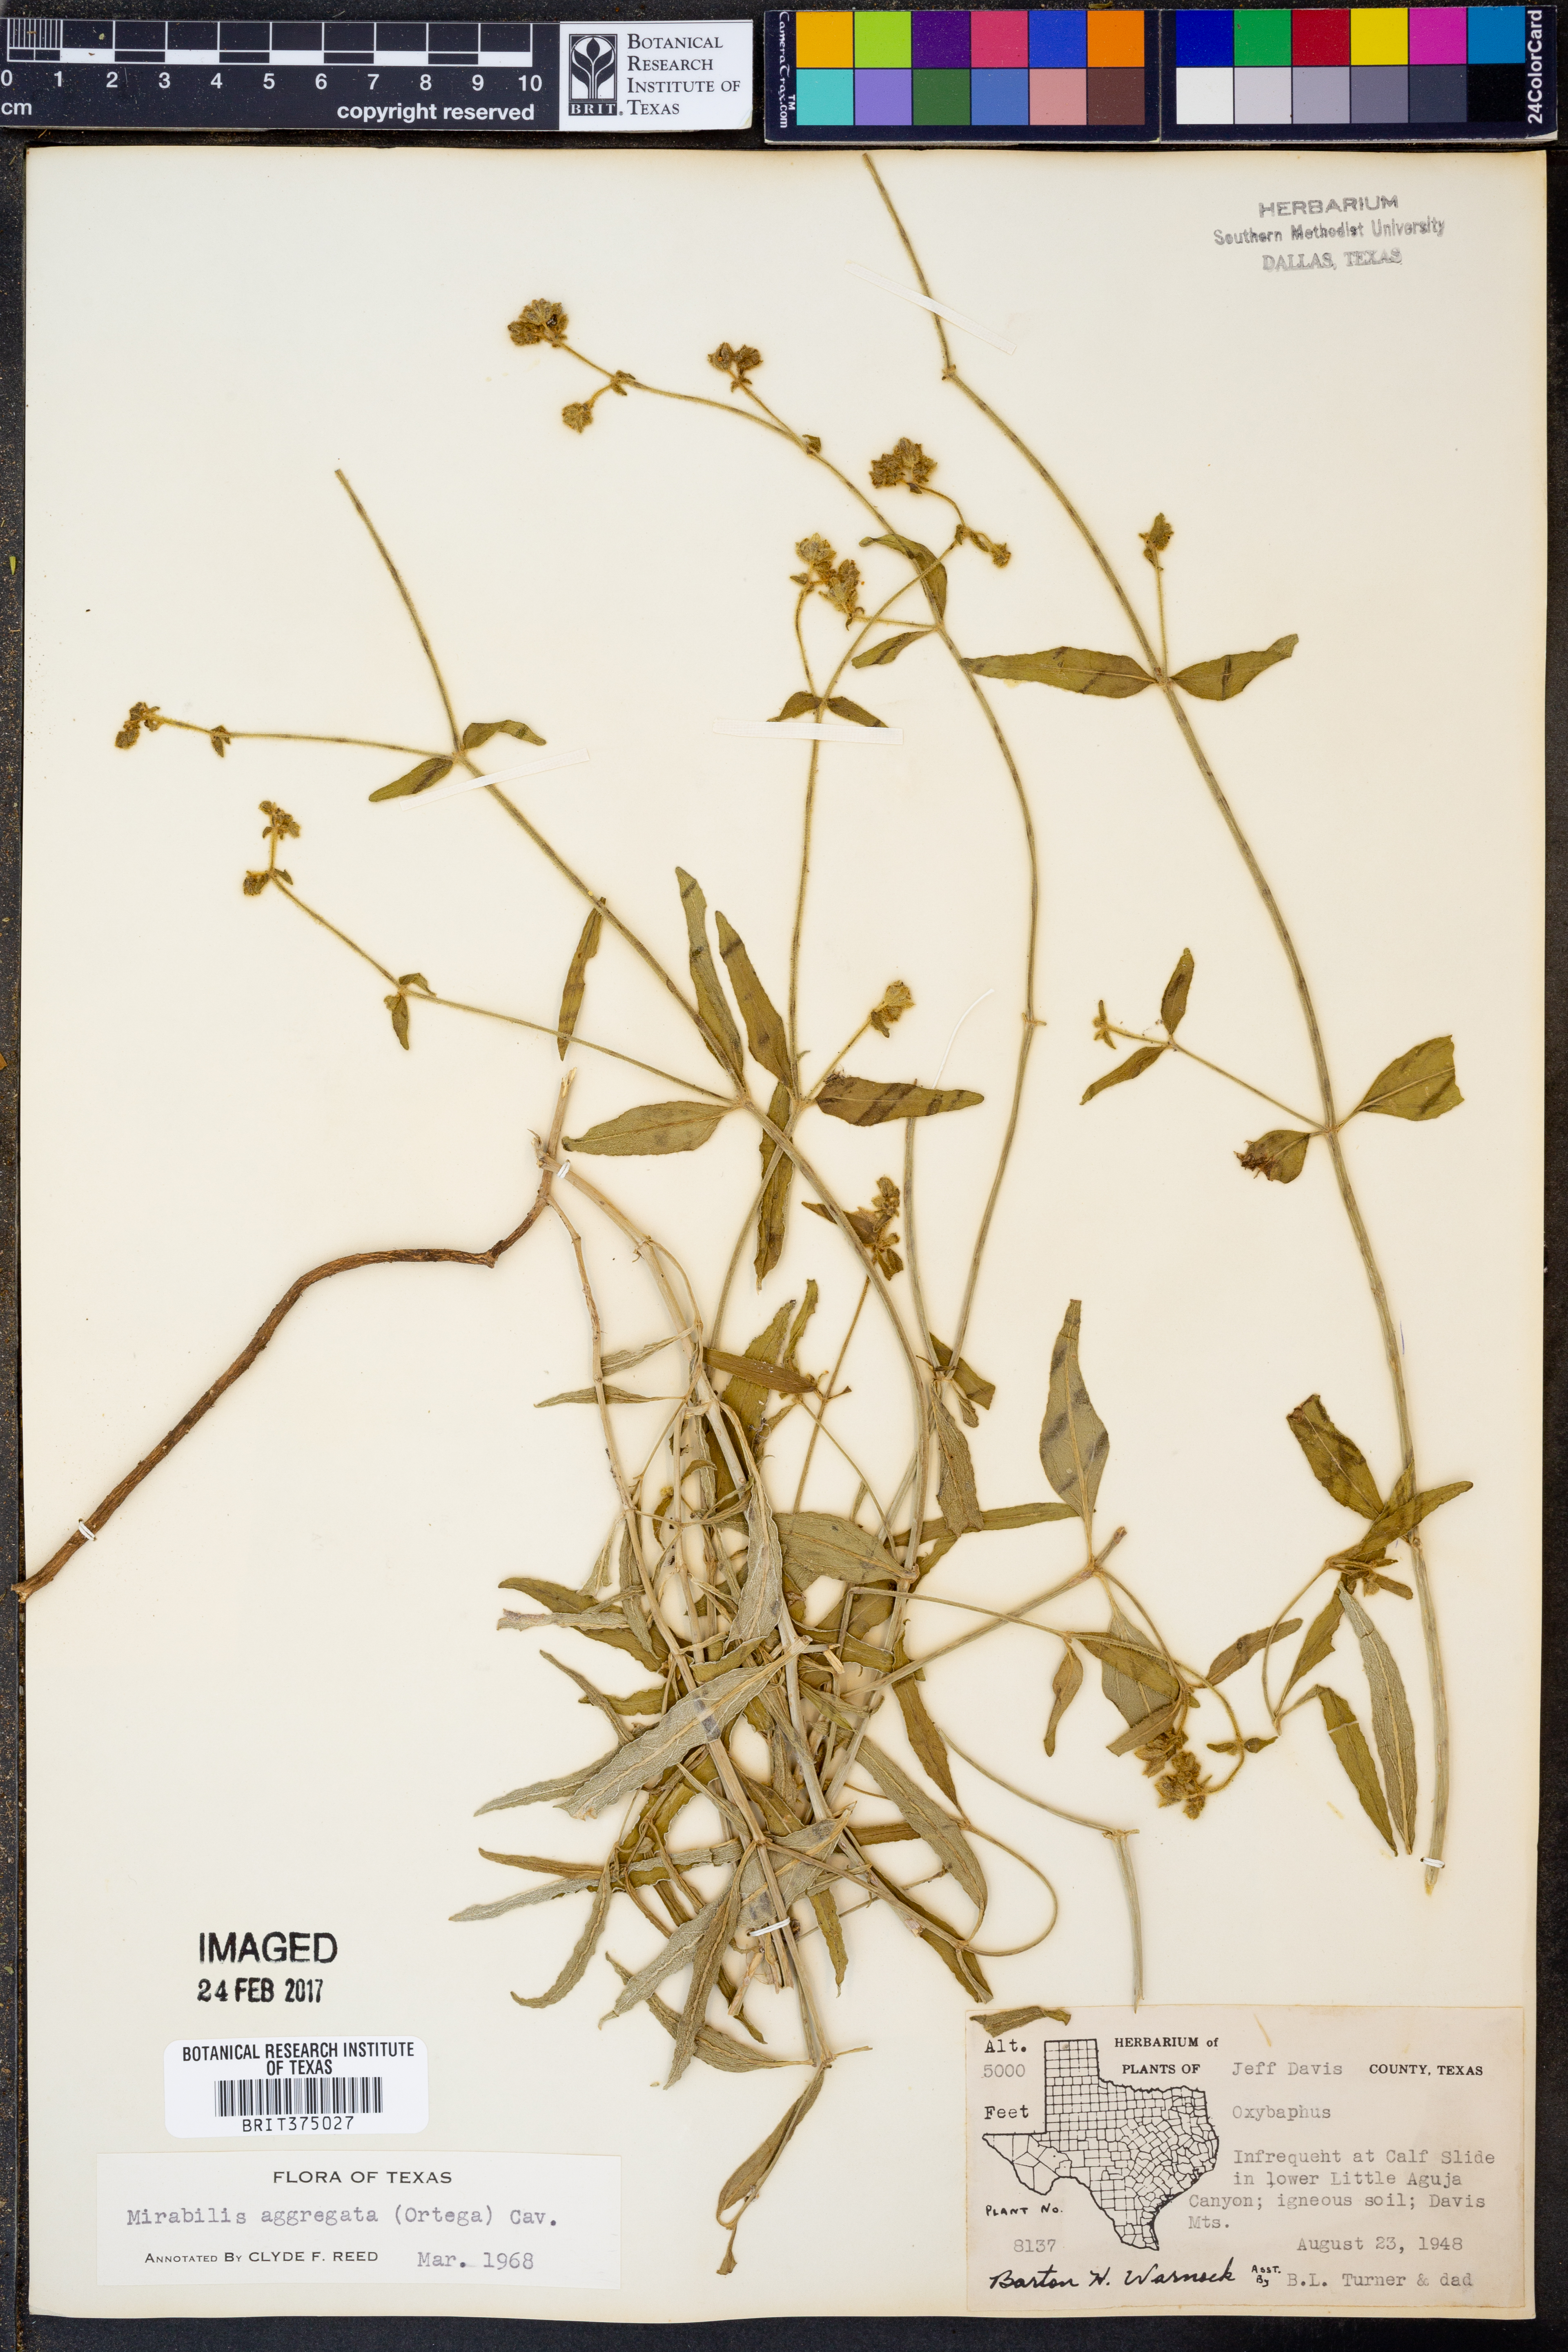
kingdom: Plantae
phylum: Tracheophyta
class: Magnoliopsida
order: Caryophyllales
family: Nyctaginaceae
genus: Mirabilis
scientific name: Mirabilis aggregata
